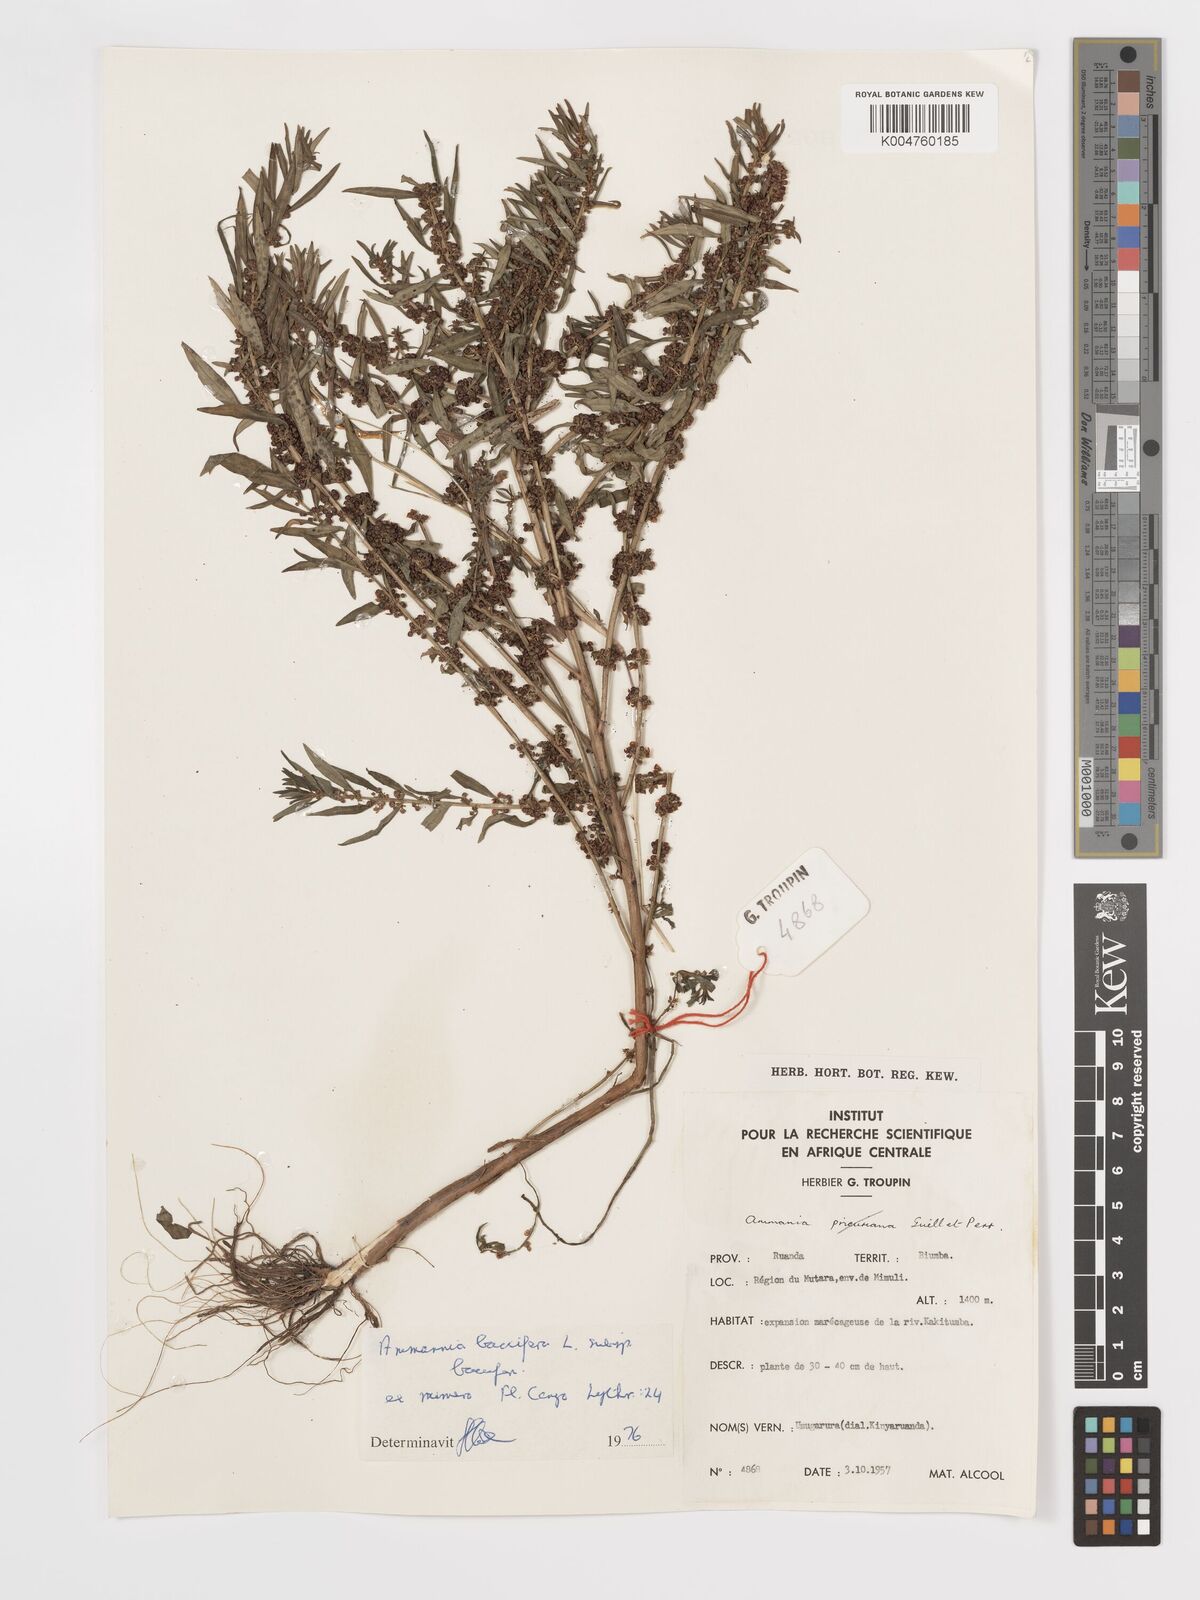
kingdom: Plantae
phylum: Tracheophyta
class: Magnoliopsida
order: Myrtales
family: Lythraceae
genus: Ammannia
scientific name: Ammannia
